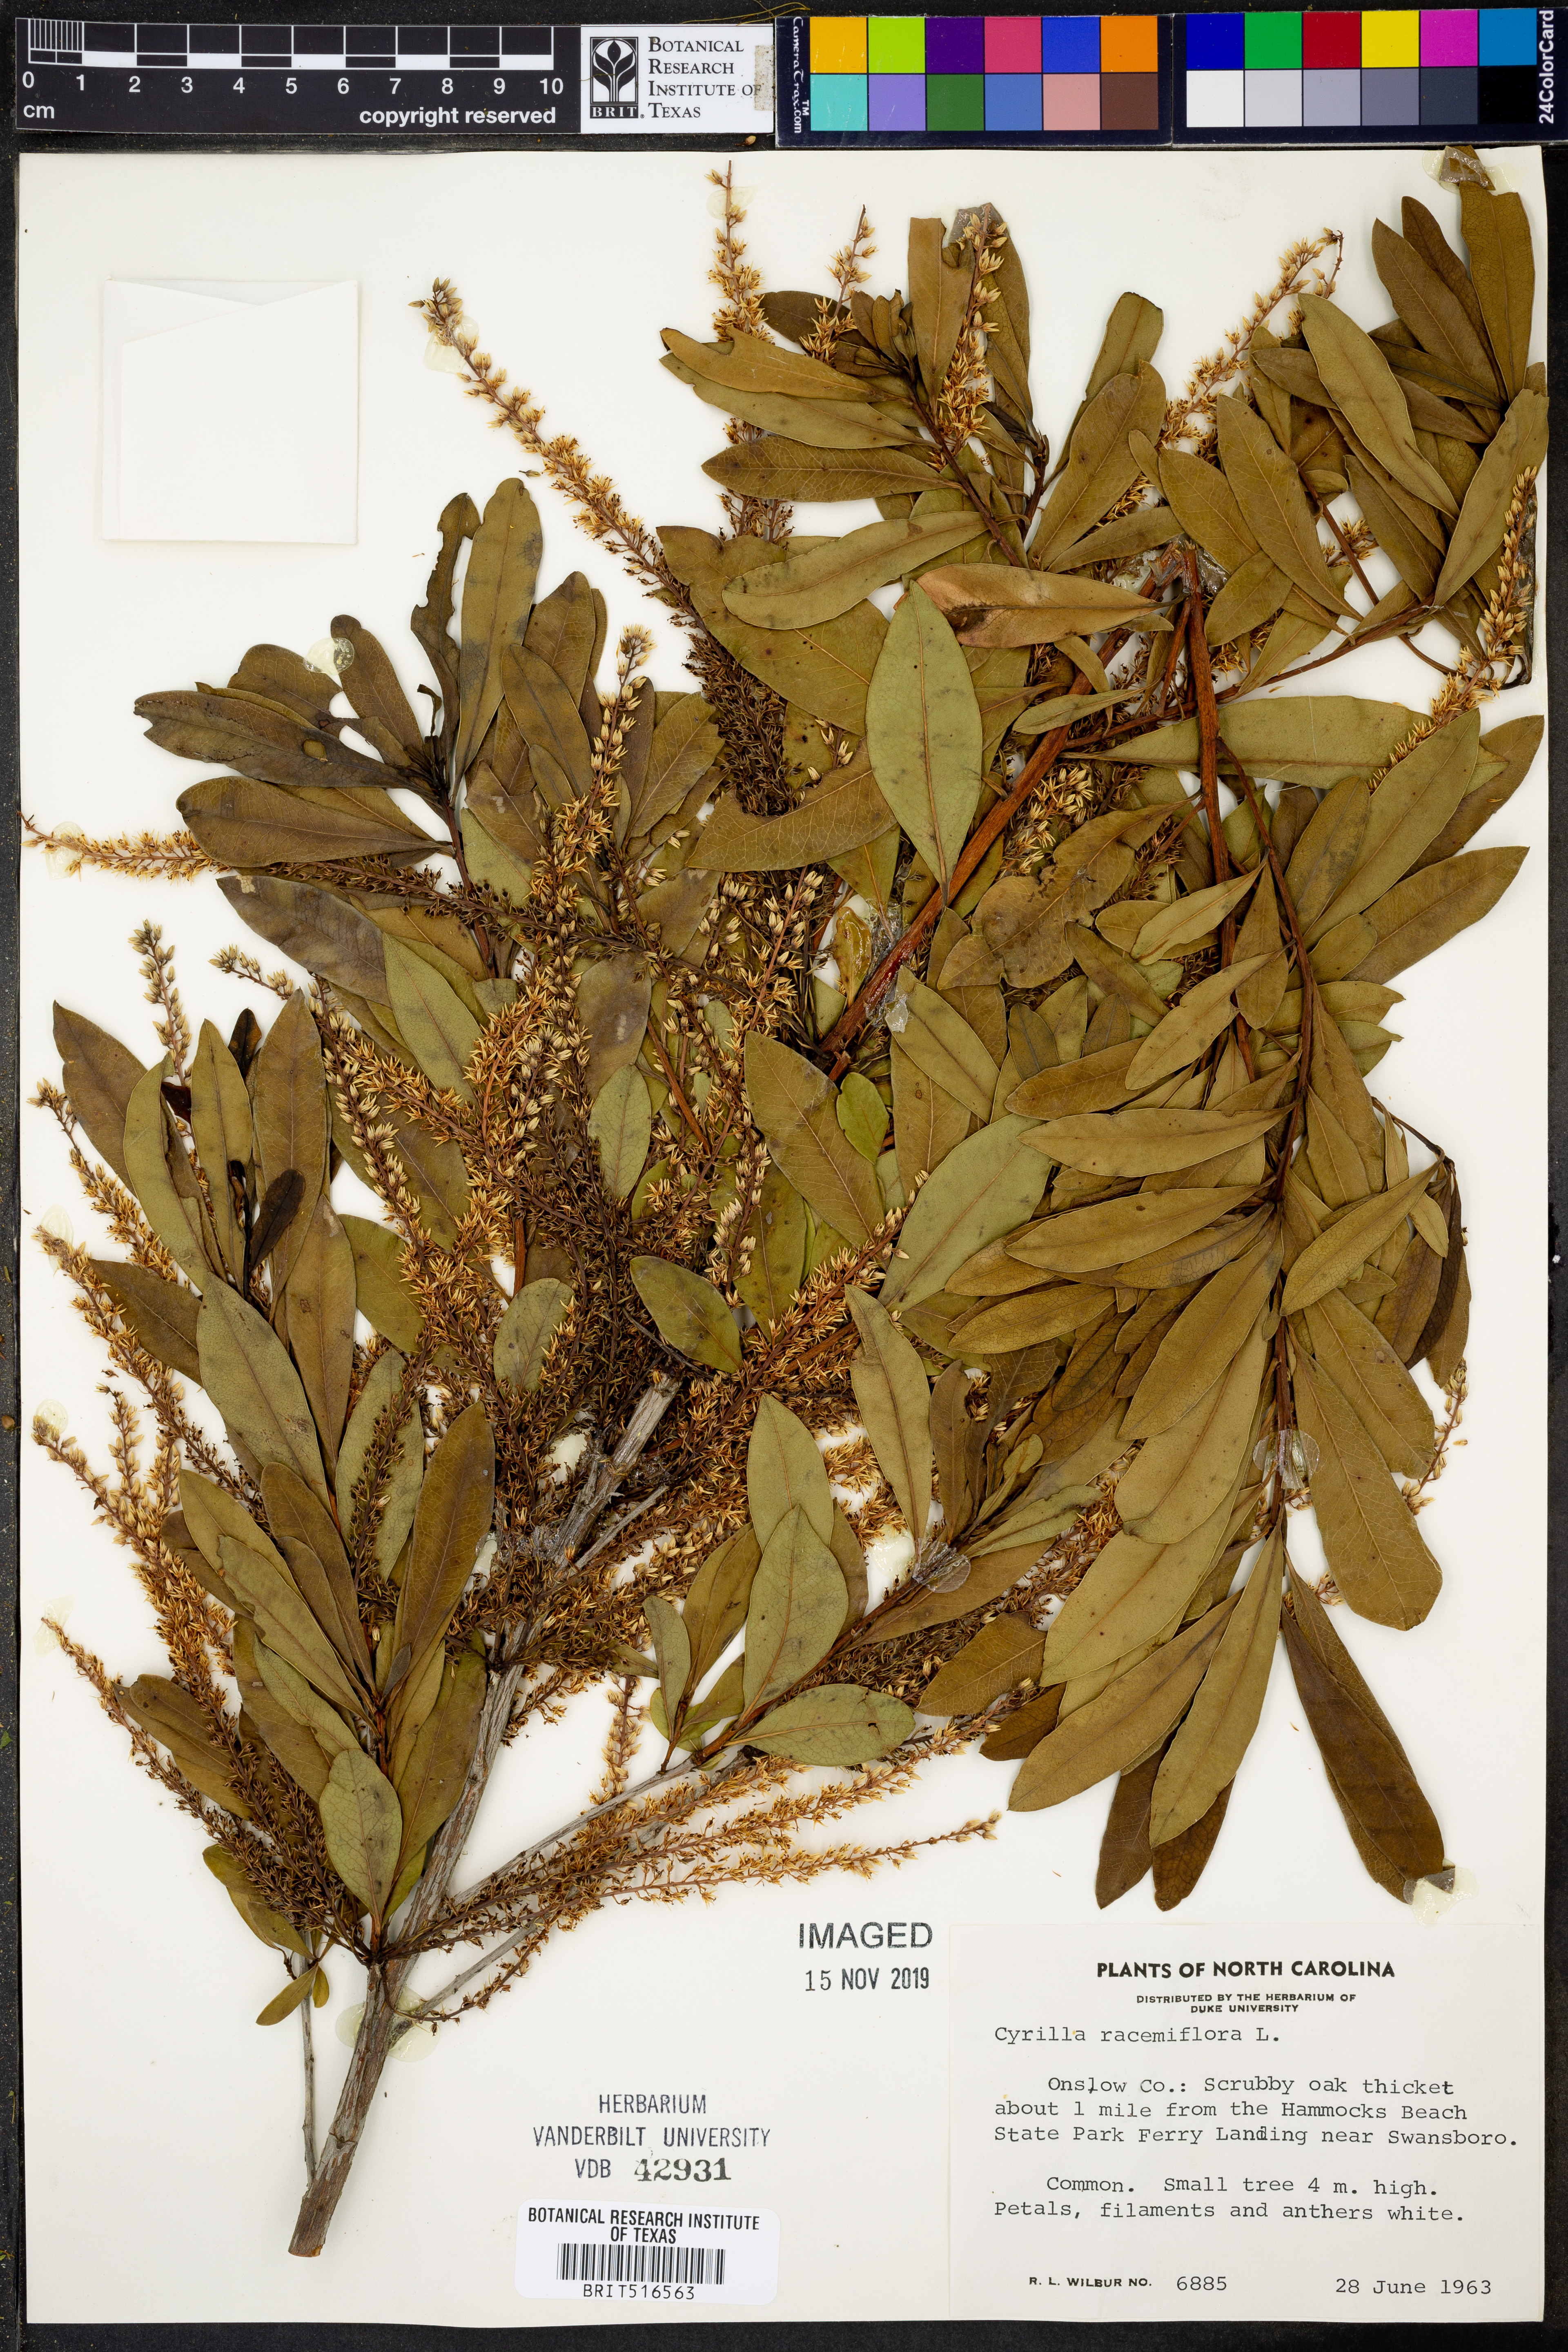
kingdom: Plantae
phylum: Tracheophyta
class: Magnoliopsida
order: Ericales
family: Cyrillaceae
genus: Cyrilla
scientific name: Cyrilla racemiflora
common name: Black titi
